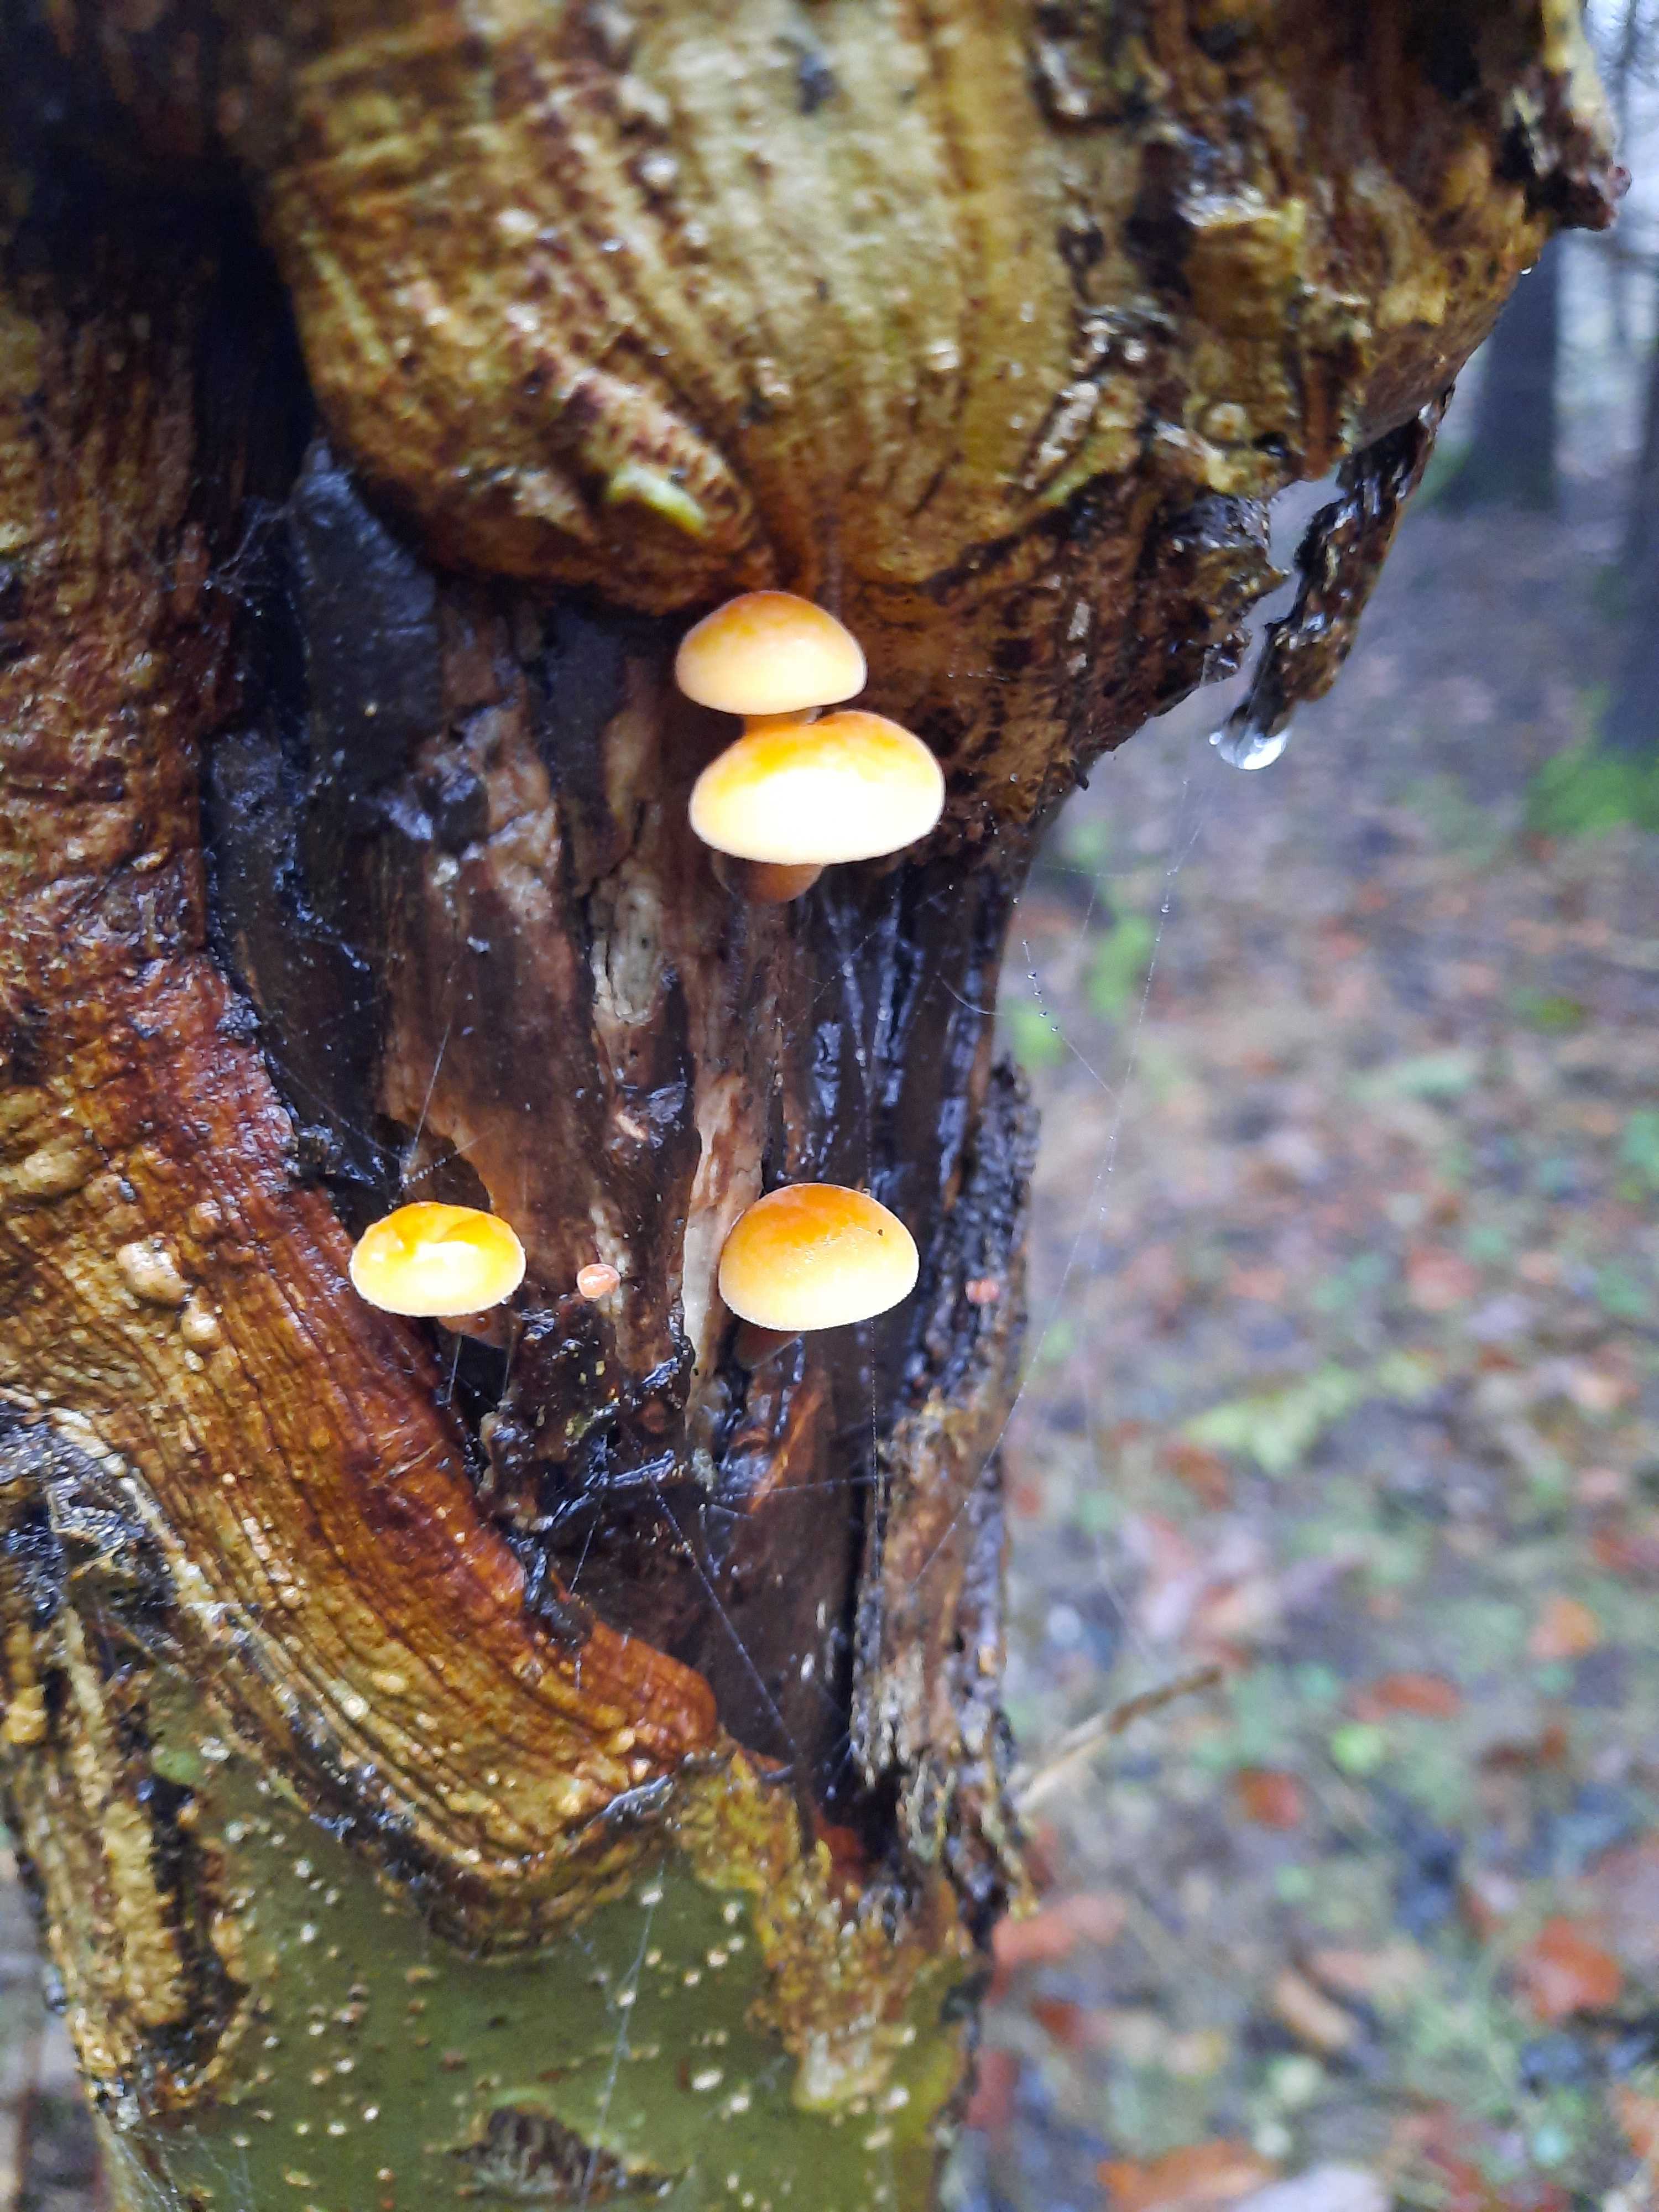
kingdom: Fungi
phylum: Basidiomycota
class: Agaricomycetes
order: Agaricales
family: Physalacriaceae
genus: Flammulina
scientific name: Flammulina velutipes
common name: gul fløjlsfod
